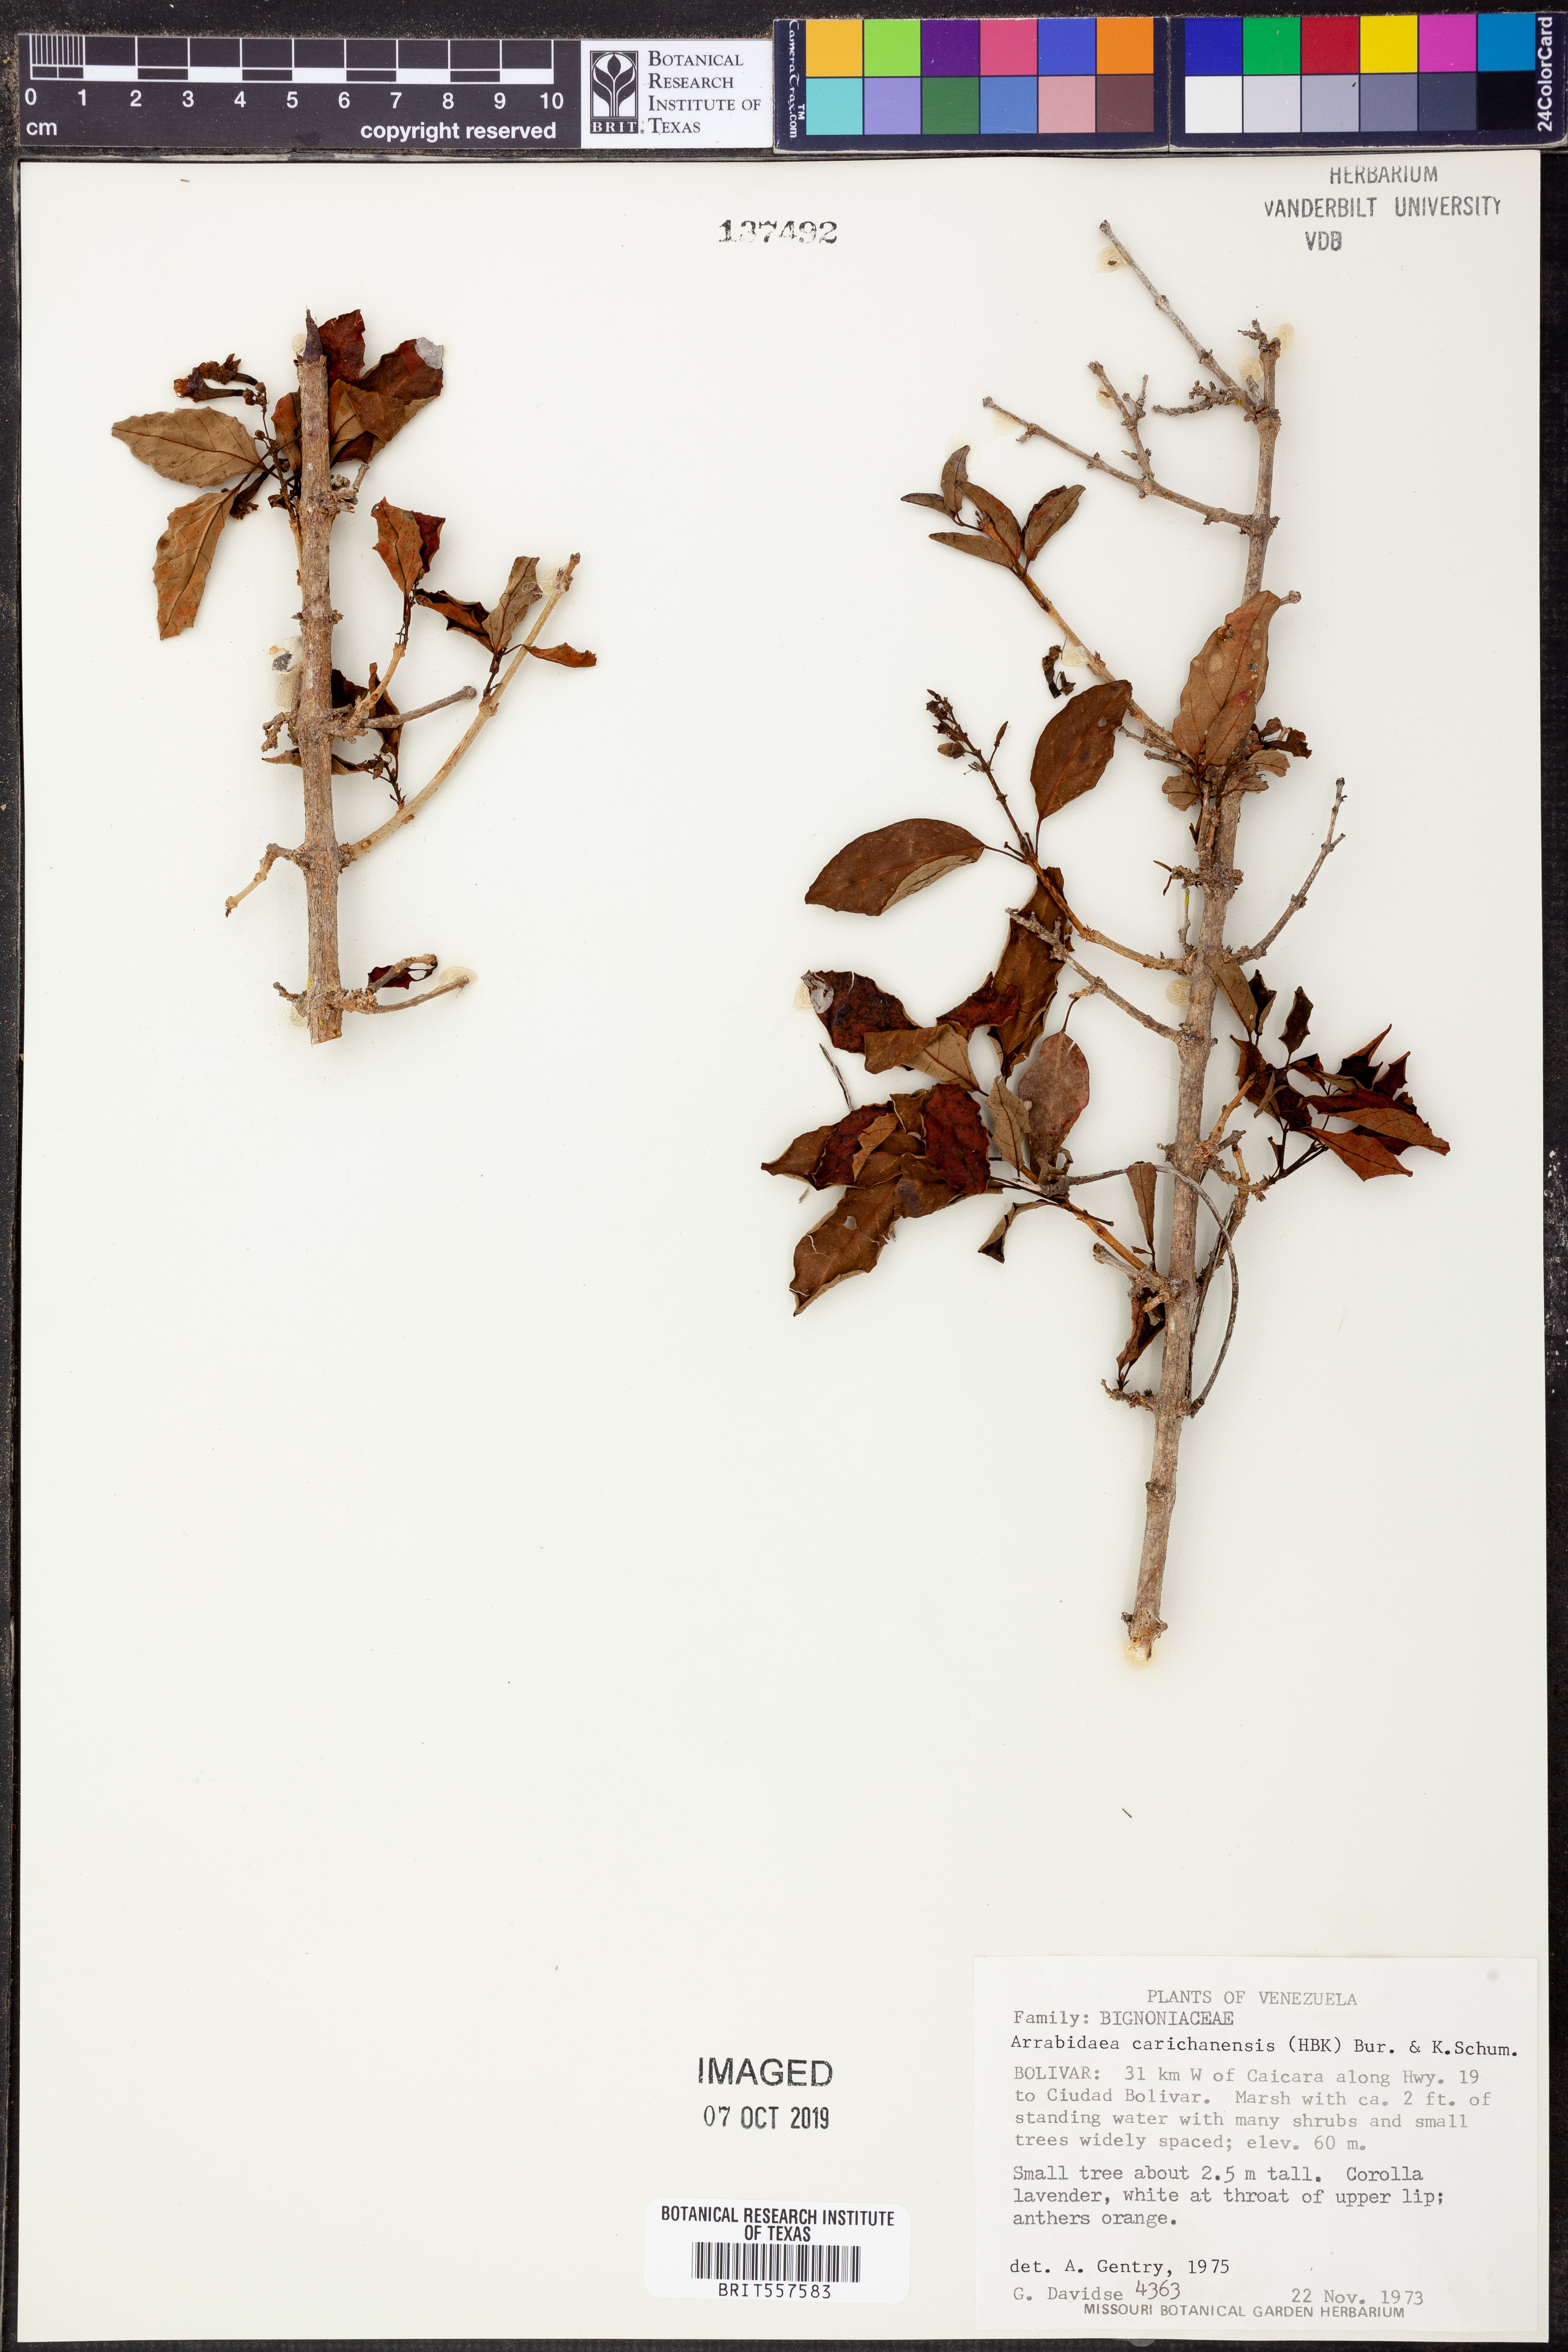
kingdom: Plantae
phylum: Tracheophyta
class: Magnoliopsida
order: Lamiales
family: Bignoniaceae
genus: Fridericia
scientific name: Fridericia carichanensis
